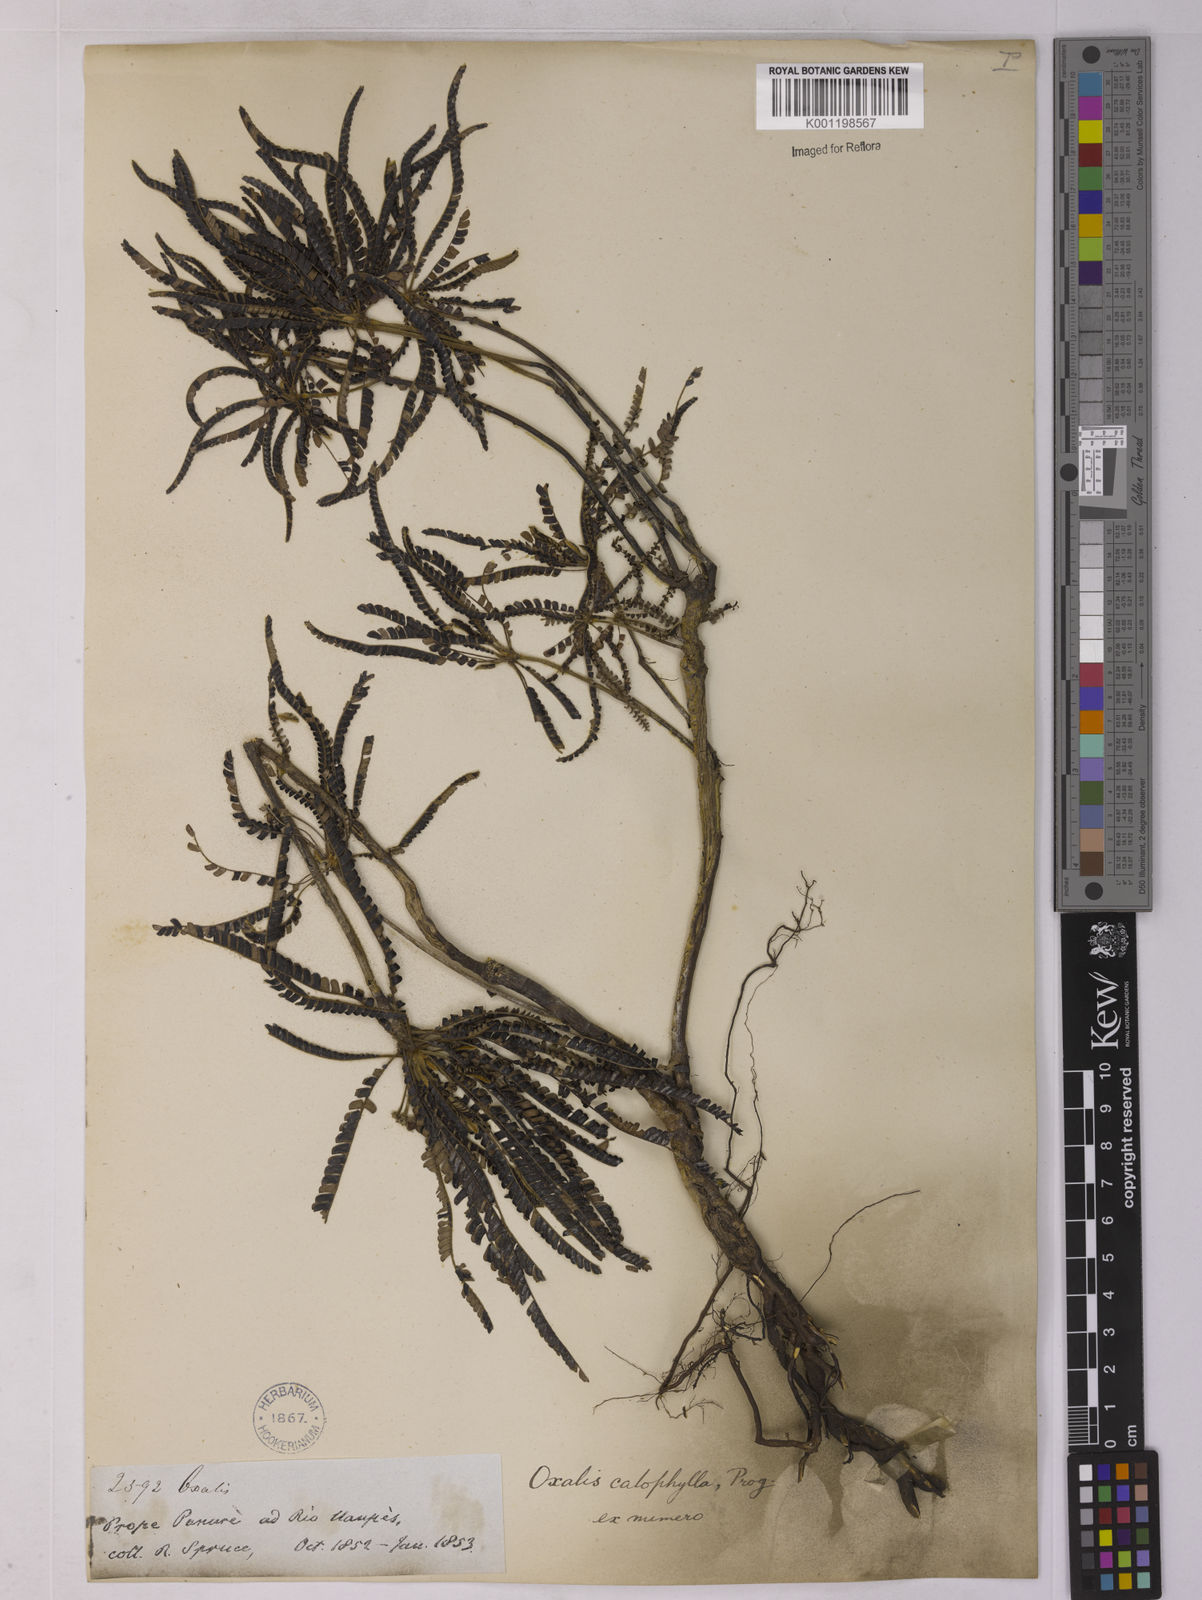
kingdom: Plantae
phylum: Tracheophyta
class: Magnoliopsida
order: Oxalidales
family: Oxalidaceae
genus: Biophytum
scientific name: Biophytum calophyllum
